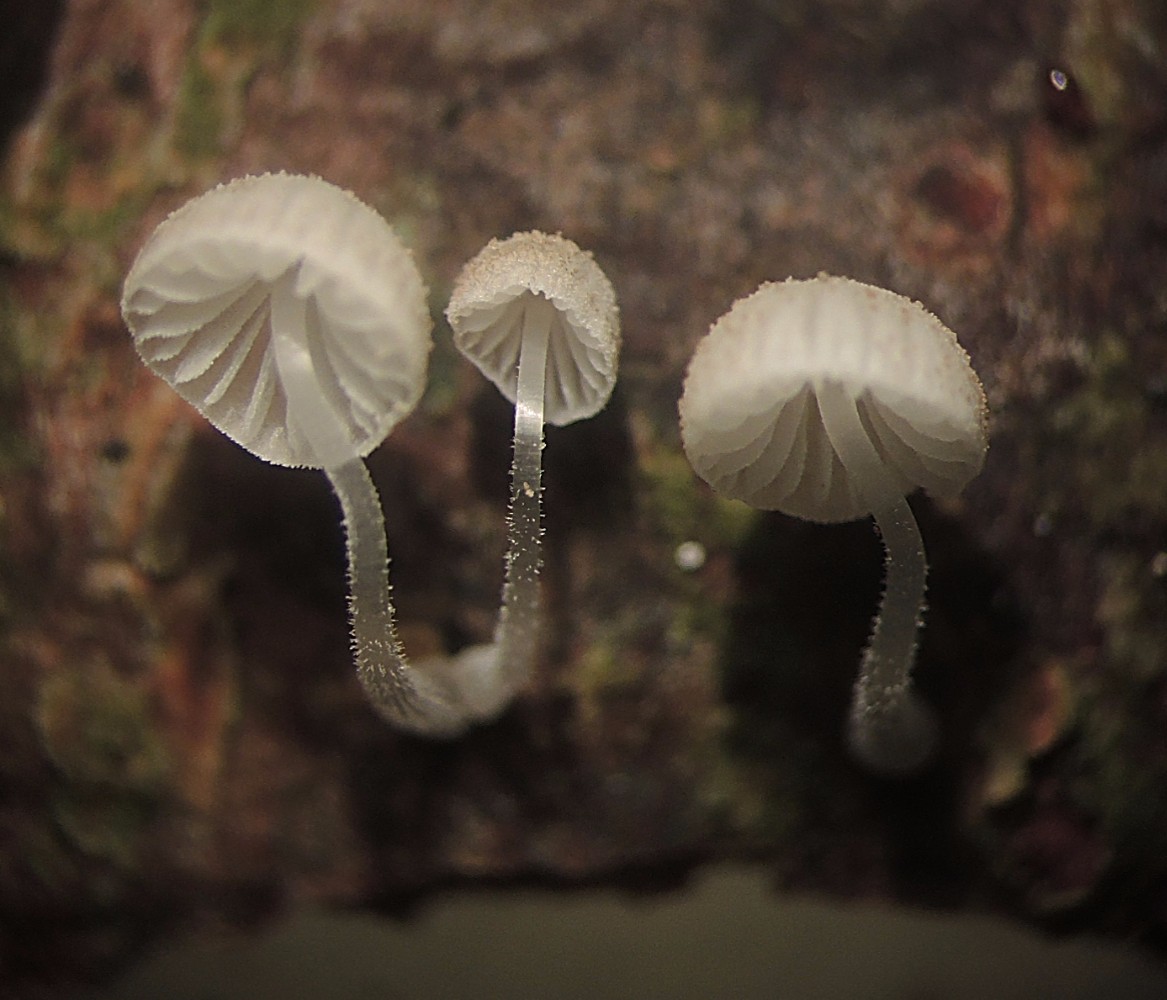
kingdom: Fungi
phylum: Basidiomycota
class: Agaricomycetes
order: Agaricales
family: Mycenaceae
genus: Mycena
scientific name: Mycena tenerrima
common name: pudret huesvamp
